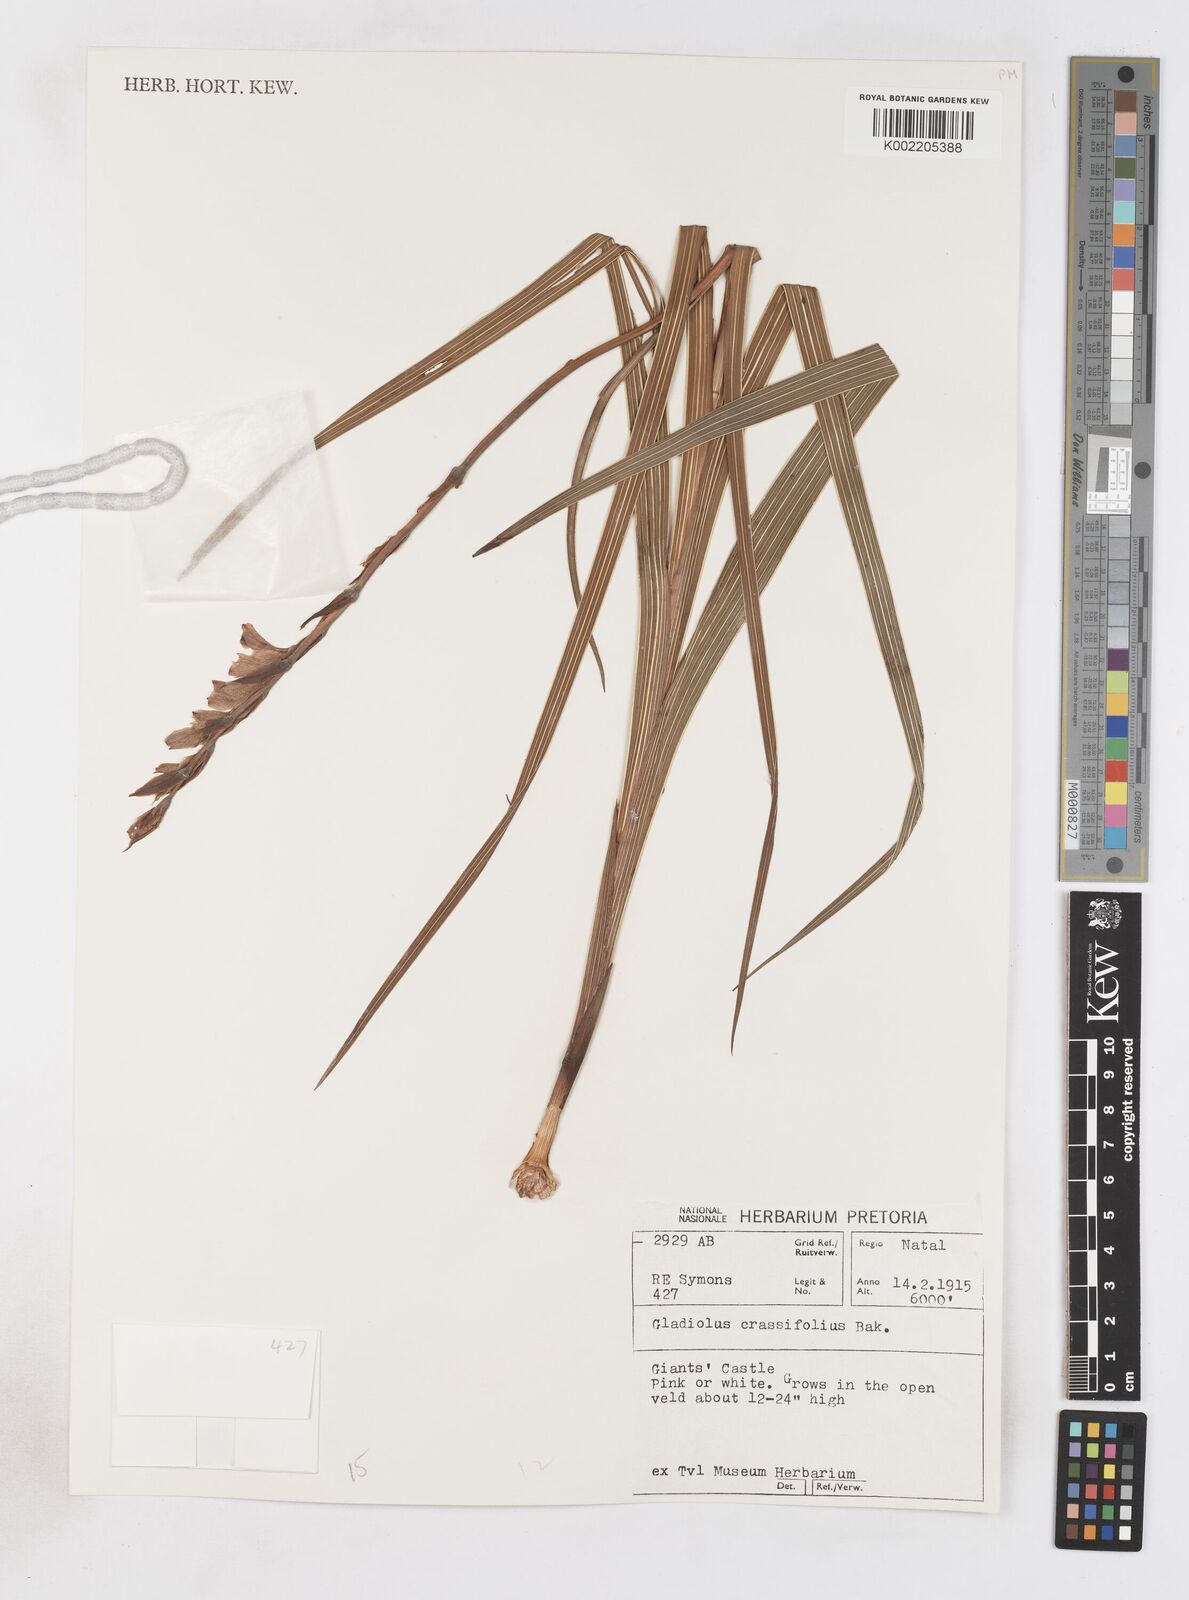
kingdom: Plantae
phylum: Tracheophyta
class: Liliopsida
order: Asparagales
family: Iridaceae
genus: Gladiolus
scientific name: Gladiolus crassifolius
